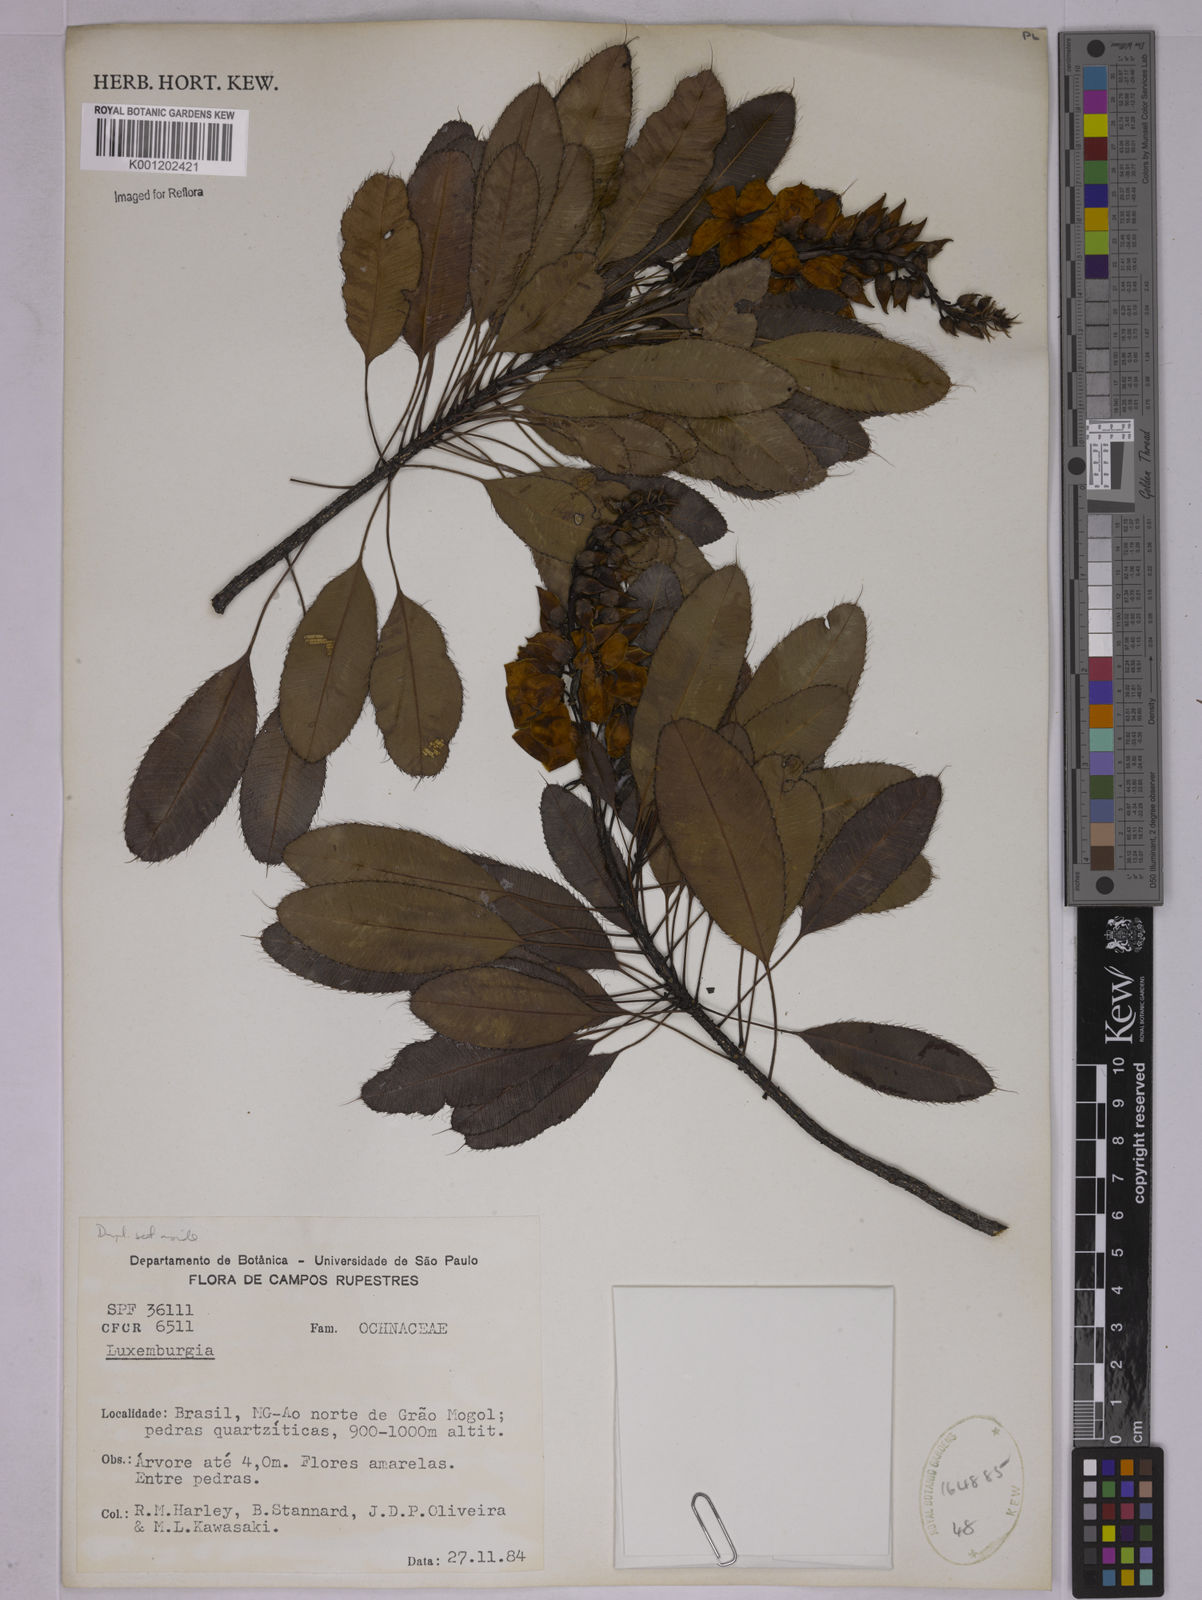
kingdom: Plantae
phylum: Tracheophyta
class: Magnoliopsida
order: Malpighiales
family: Ochnaceae
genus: Luxemburgia
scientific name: Luxemburgia
